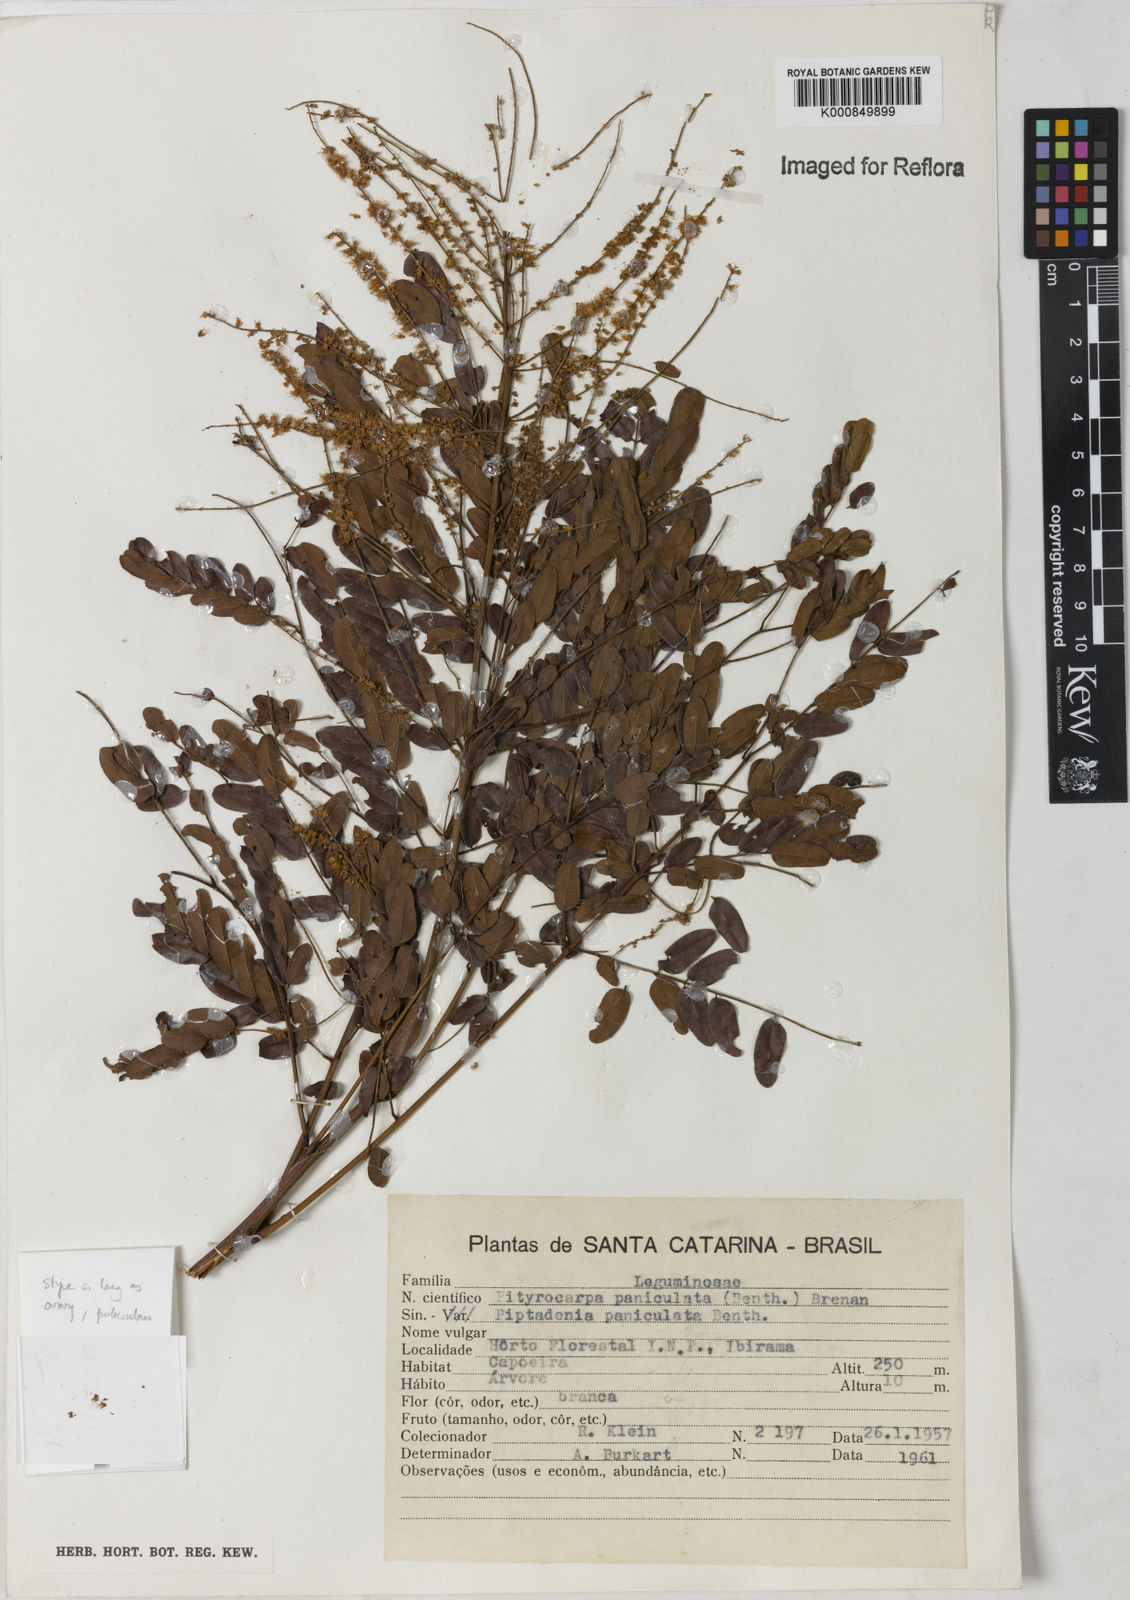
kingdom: Plantae
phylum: Tracheophyta
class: Magnoliopsida
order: Fabales
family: Fabaceae
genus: Piptadenia
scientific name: Piptadenia paniculata
